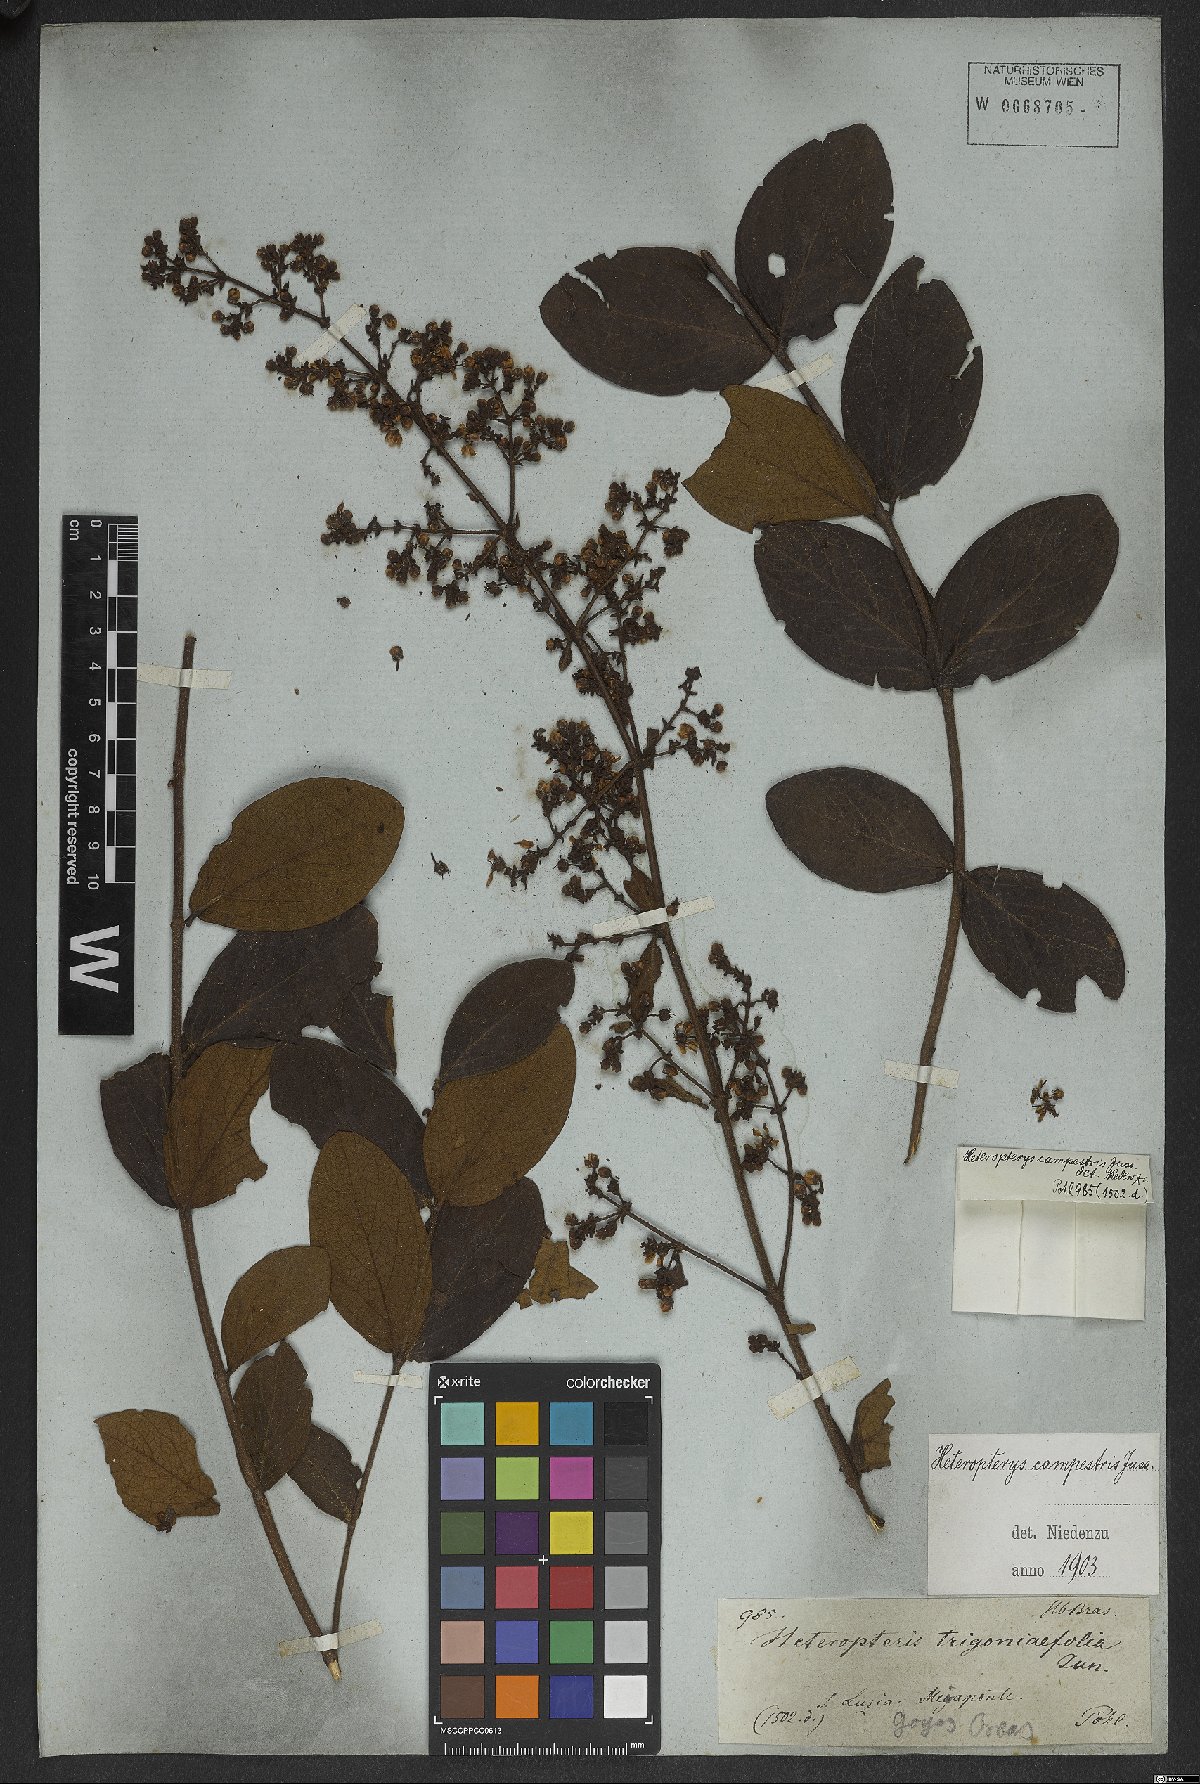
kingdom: Plantae
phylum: Tracheophyta
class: Magnoliopsida
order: Malpighiales
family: Malpighiaceae
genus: Heteropterys
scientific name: Heteropterys campestris
